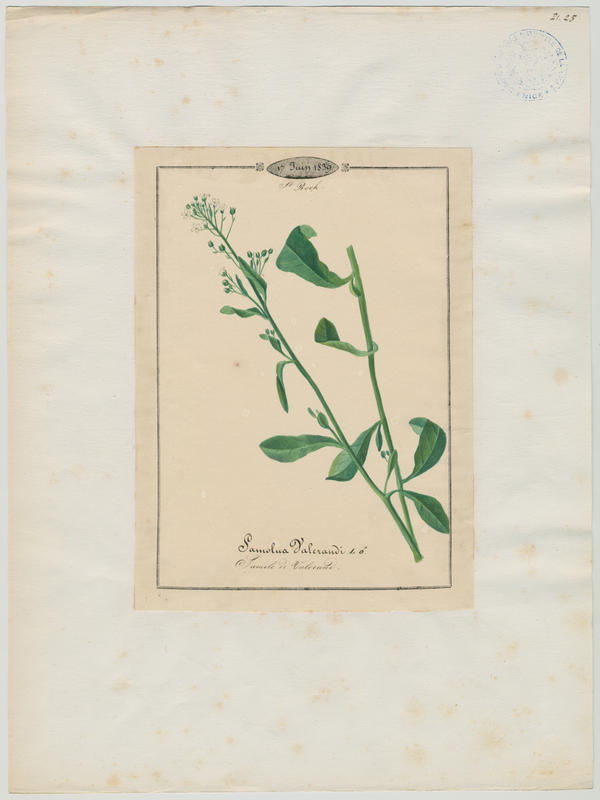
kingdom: Plantae
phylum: Tracheophyta
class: Magnoliopsida
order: Ericales
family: Primulaceae
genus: Samolus
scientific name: Samolus valerandi
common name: Brookweed
